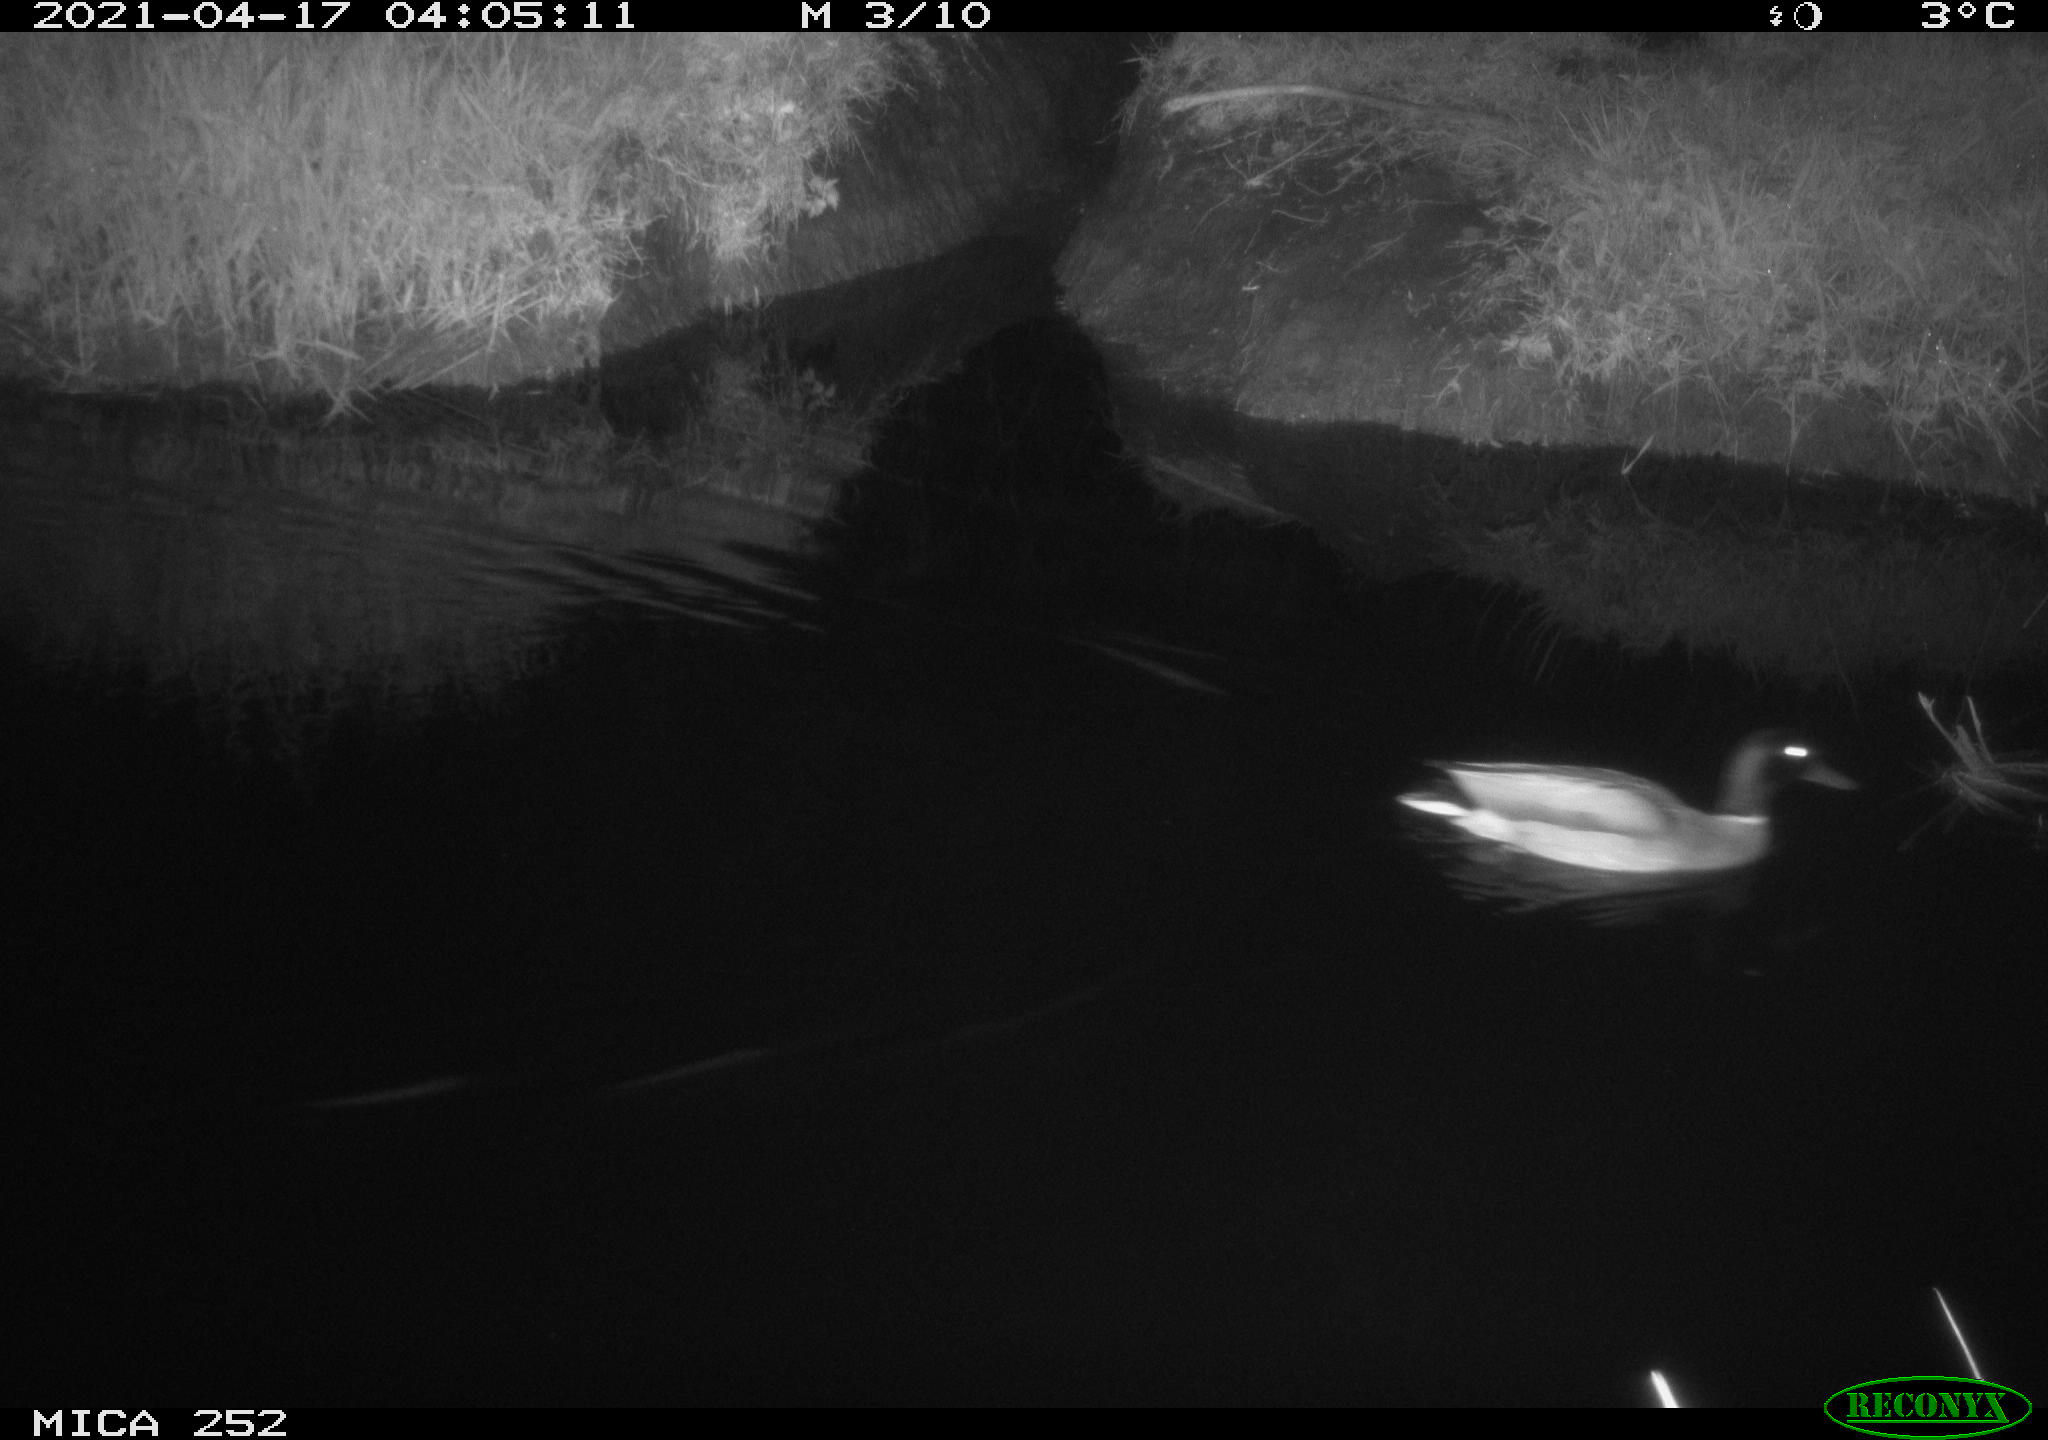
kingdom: Animalia
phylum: Chordata
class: Aves
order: Anseriformes
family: Anatidae
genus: Anas
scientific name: Anas platyrhynchos
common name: Mallard
